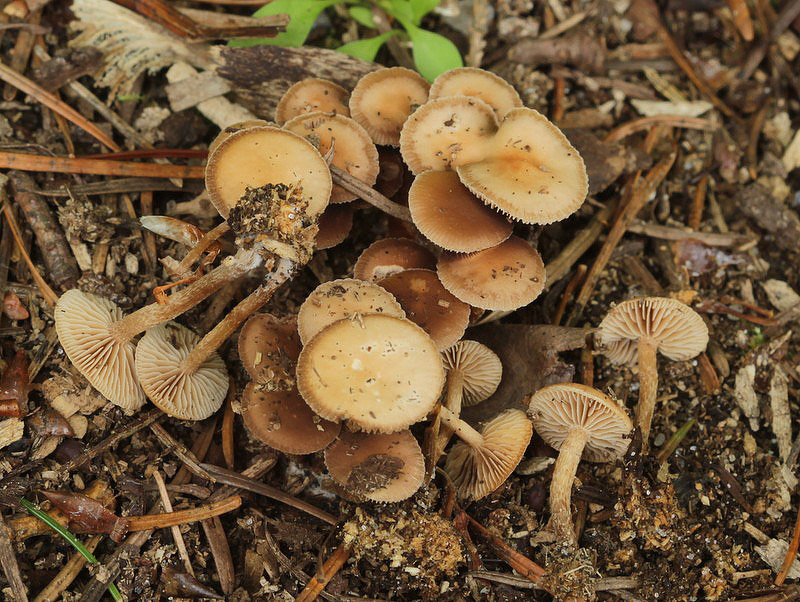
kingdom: Fungi
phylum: Basidiomycota
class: Agaricomycetes
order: Agaricales
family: Strophariaceae
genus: Deconica
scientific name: Deconica crobula
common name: træflis-stråhat
